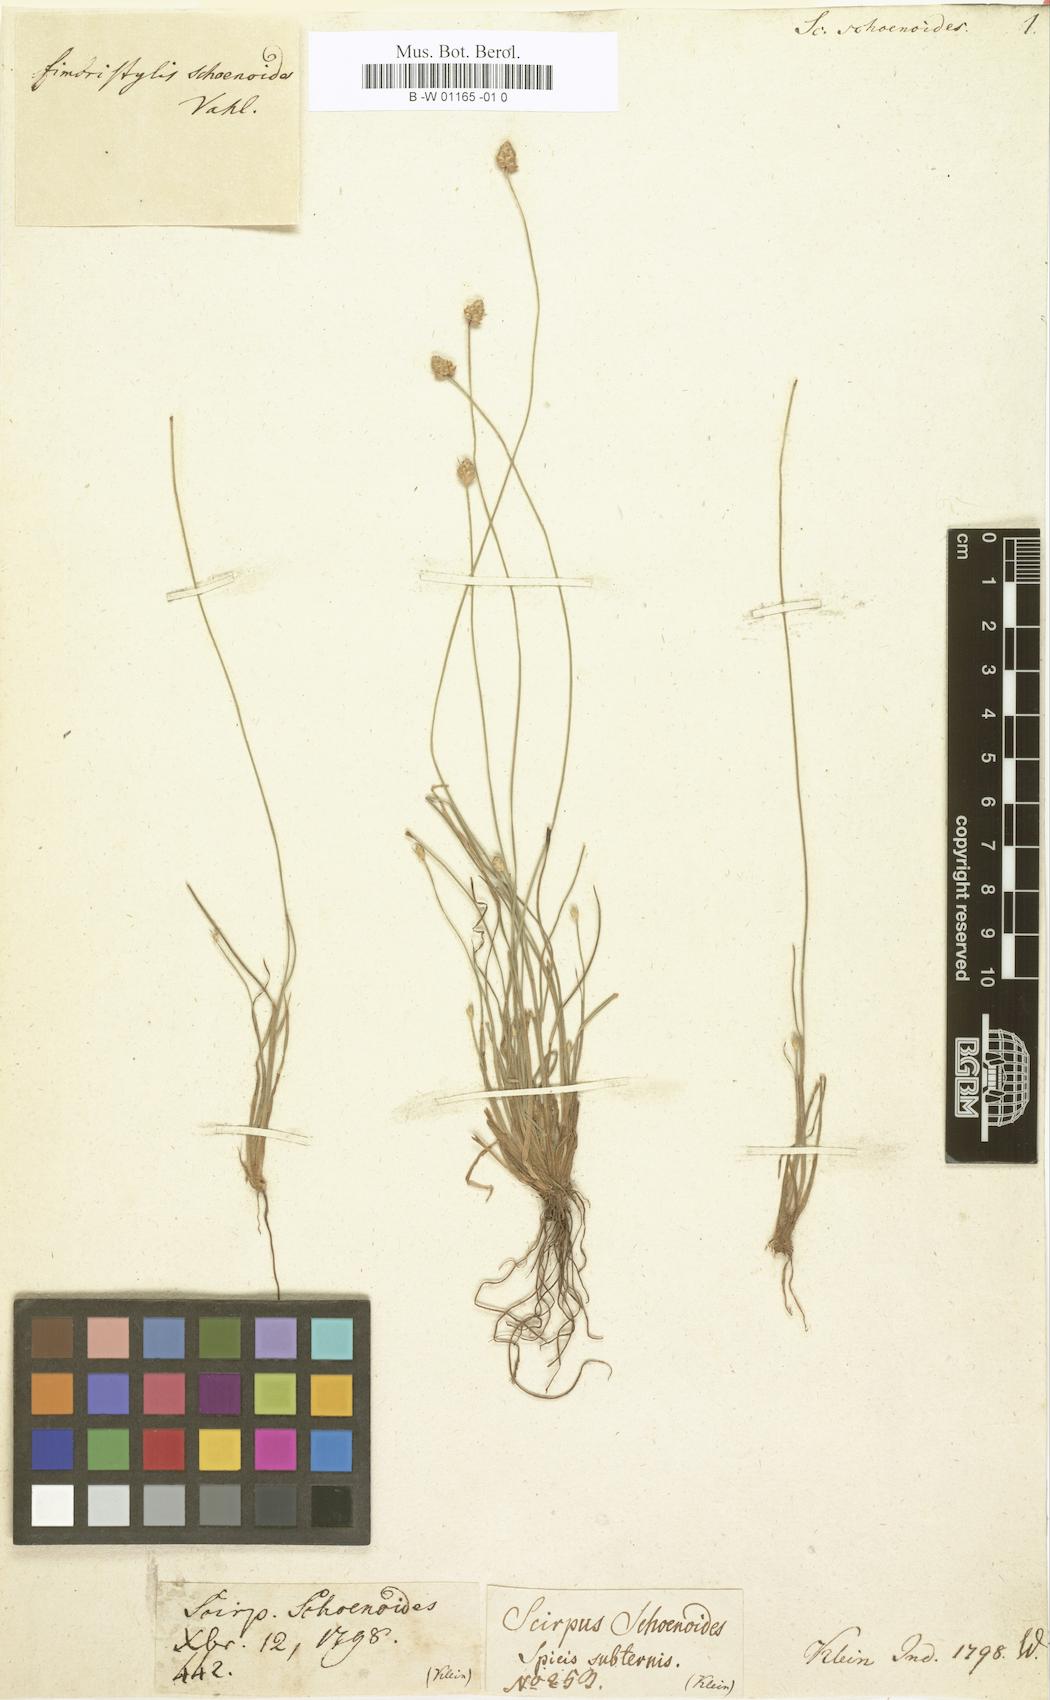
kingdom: Plantae
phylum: Tracheophyta
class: Liliopsida
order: Poales
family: Cyperaceae
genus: Scirpus
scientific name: Scirpus schoenoides
